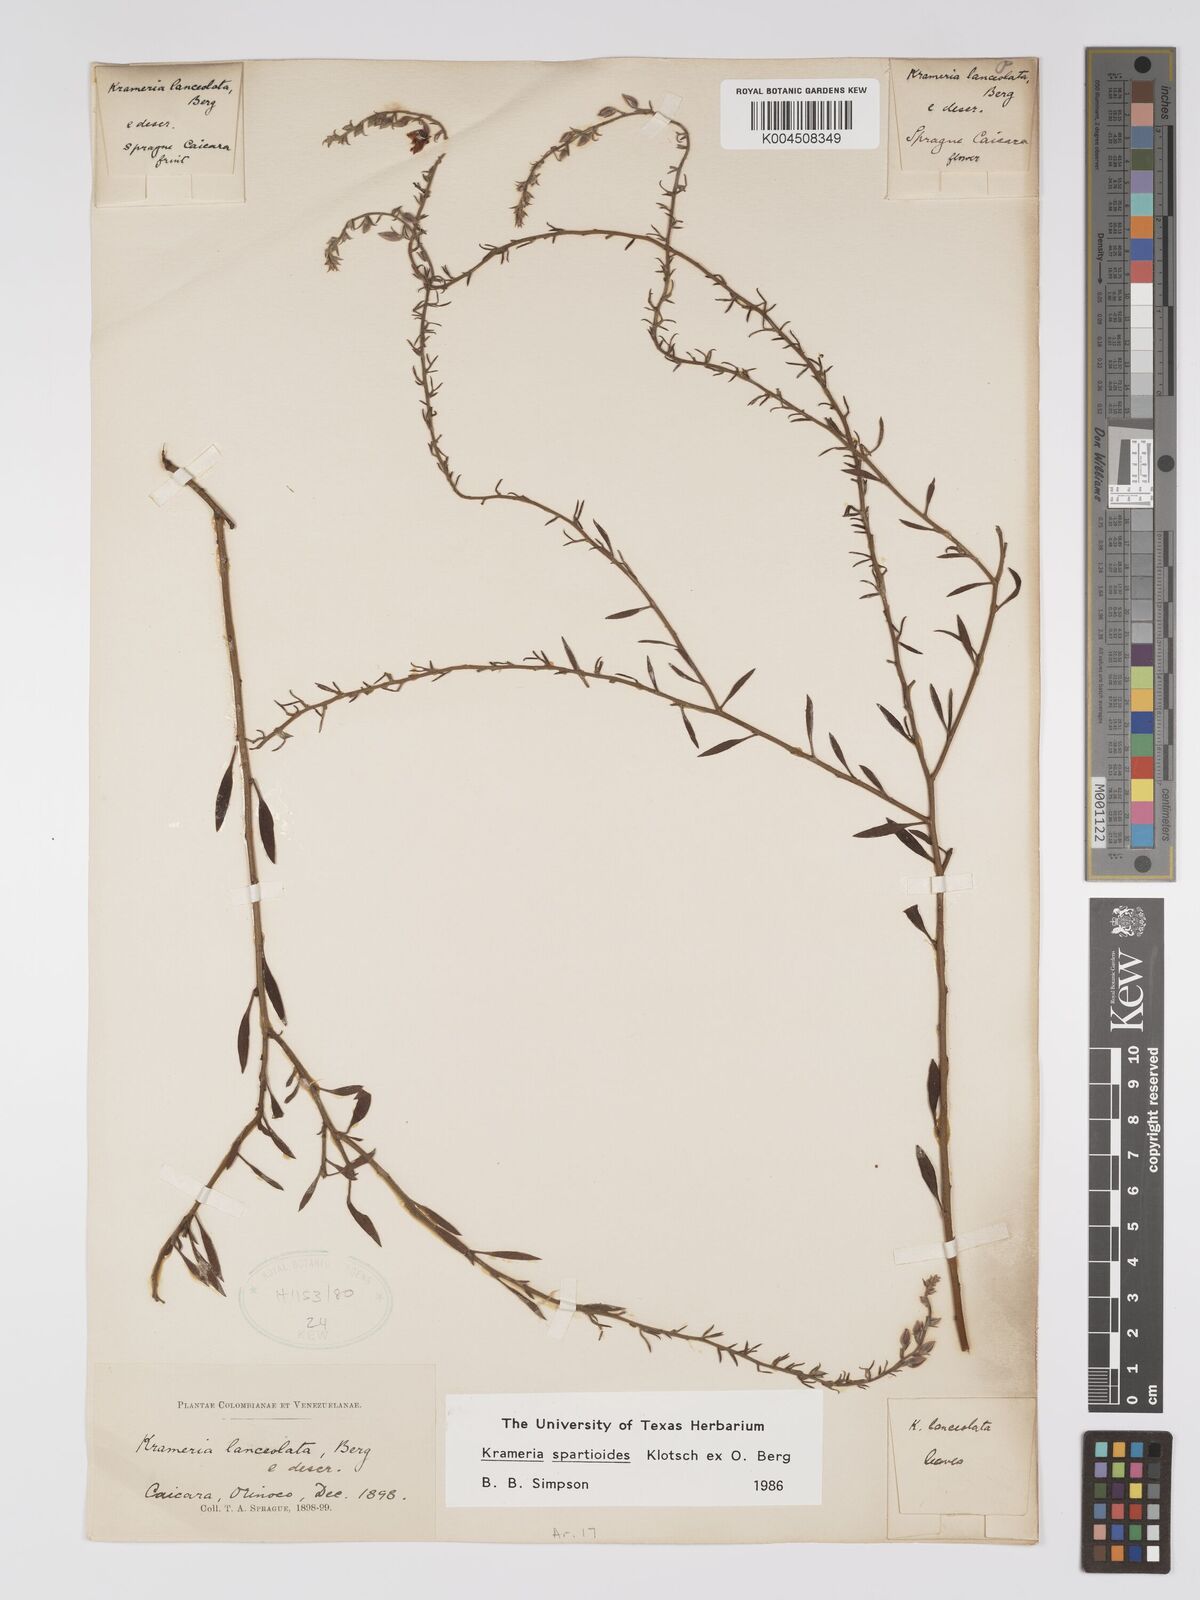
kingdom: Plantae
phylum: Tracheophyta
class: Magnoliopsida
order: Zygophyllales
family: Krameriaceae
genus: Krameria
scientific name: Krameria spartioides
